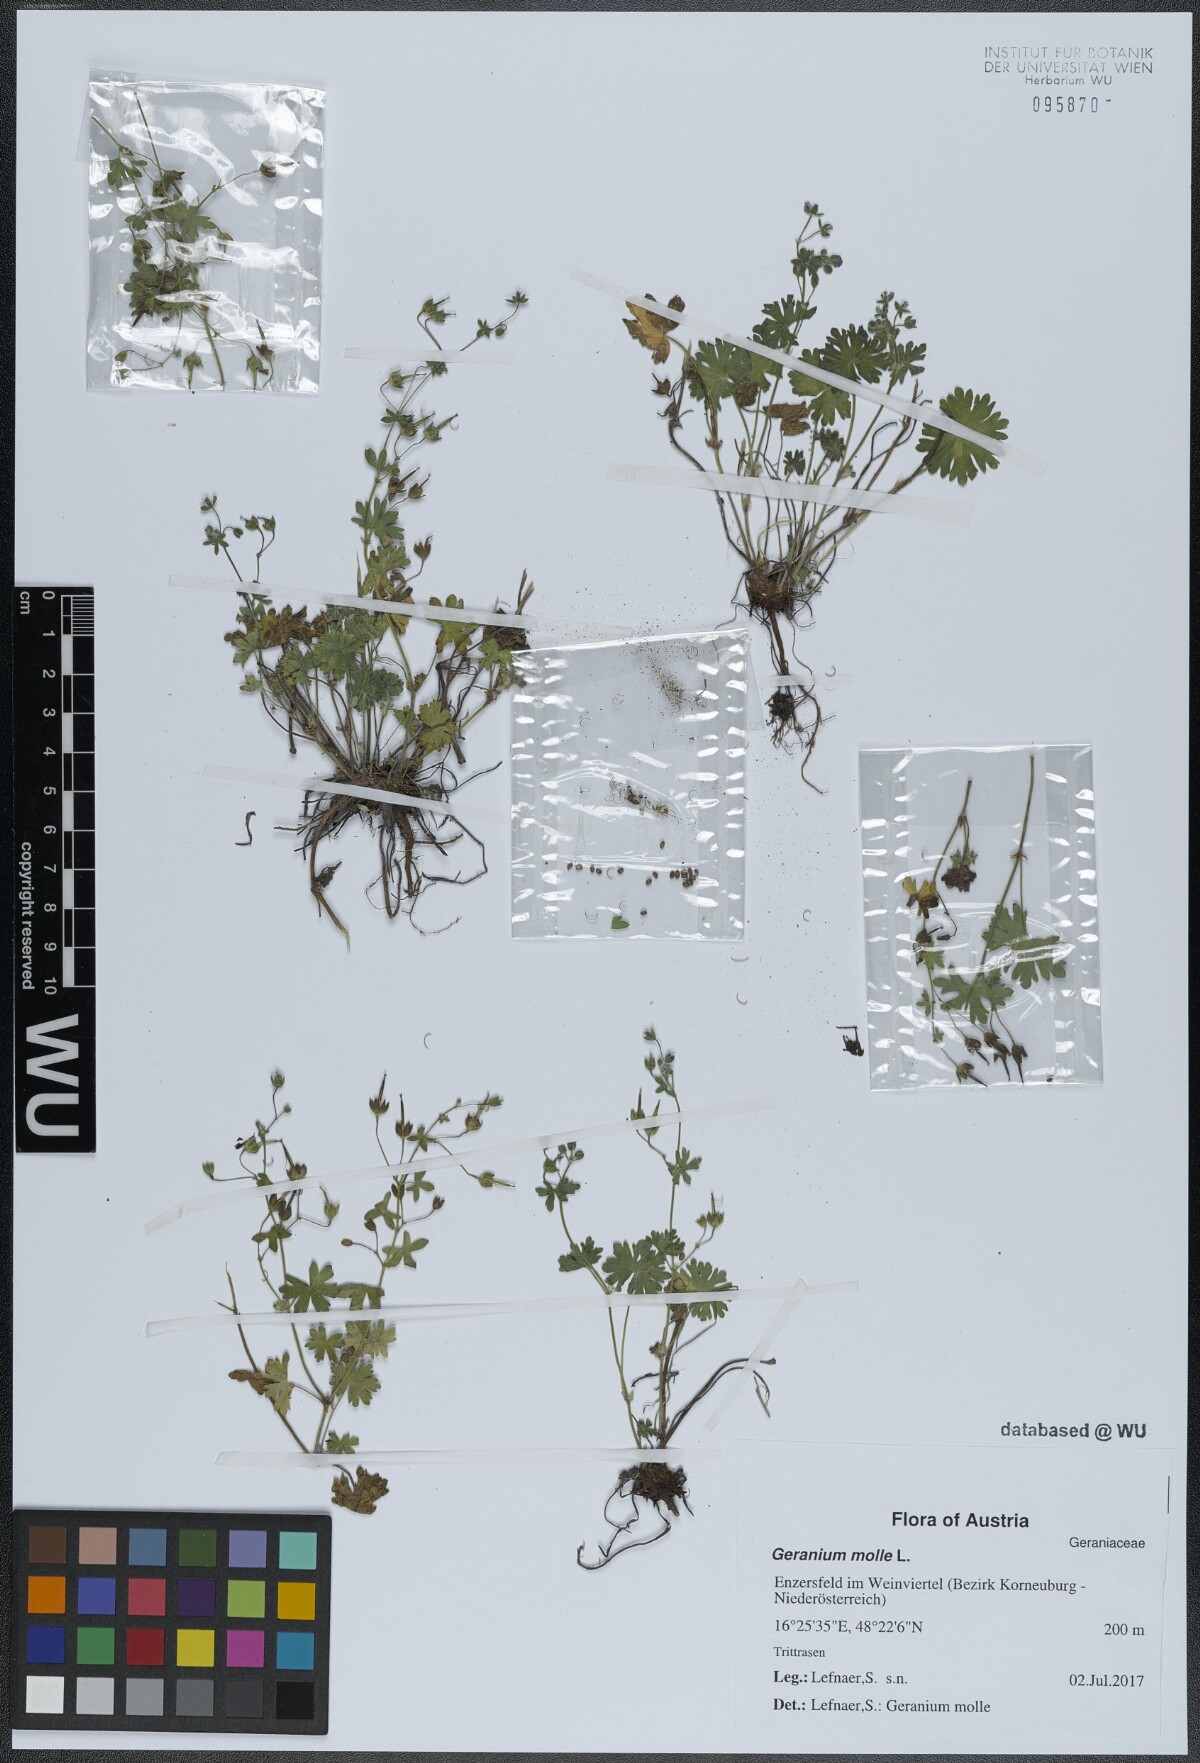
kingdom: Plantae
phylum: Tracheophyta
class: Magnoliopsida
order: Geraniales
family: Geraniaceae
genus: Geranium
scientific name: Geranium molle
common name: Dove's-foot crane's-bill
